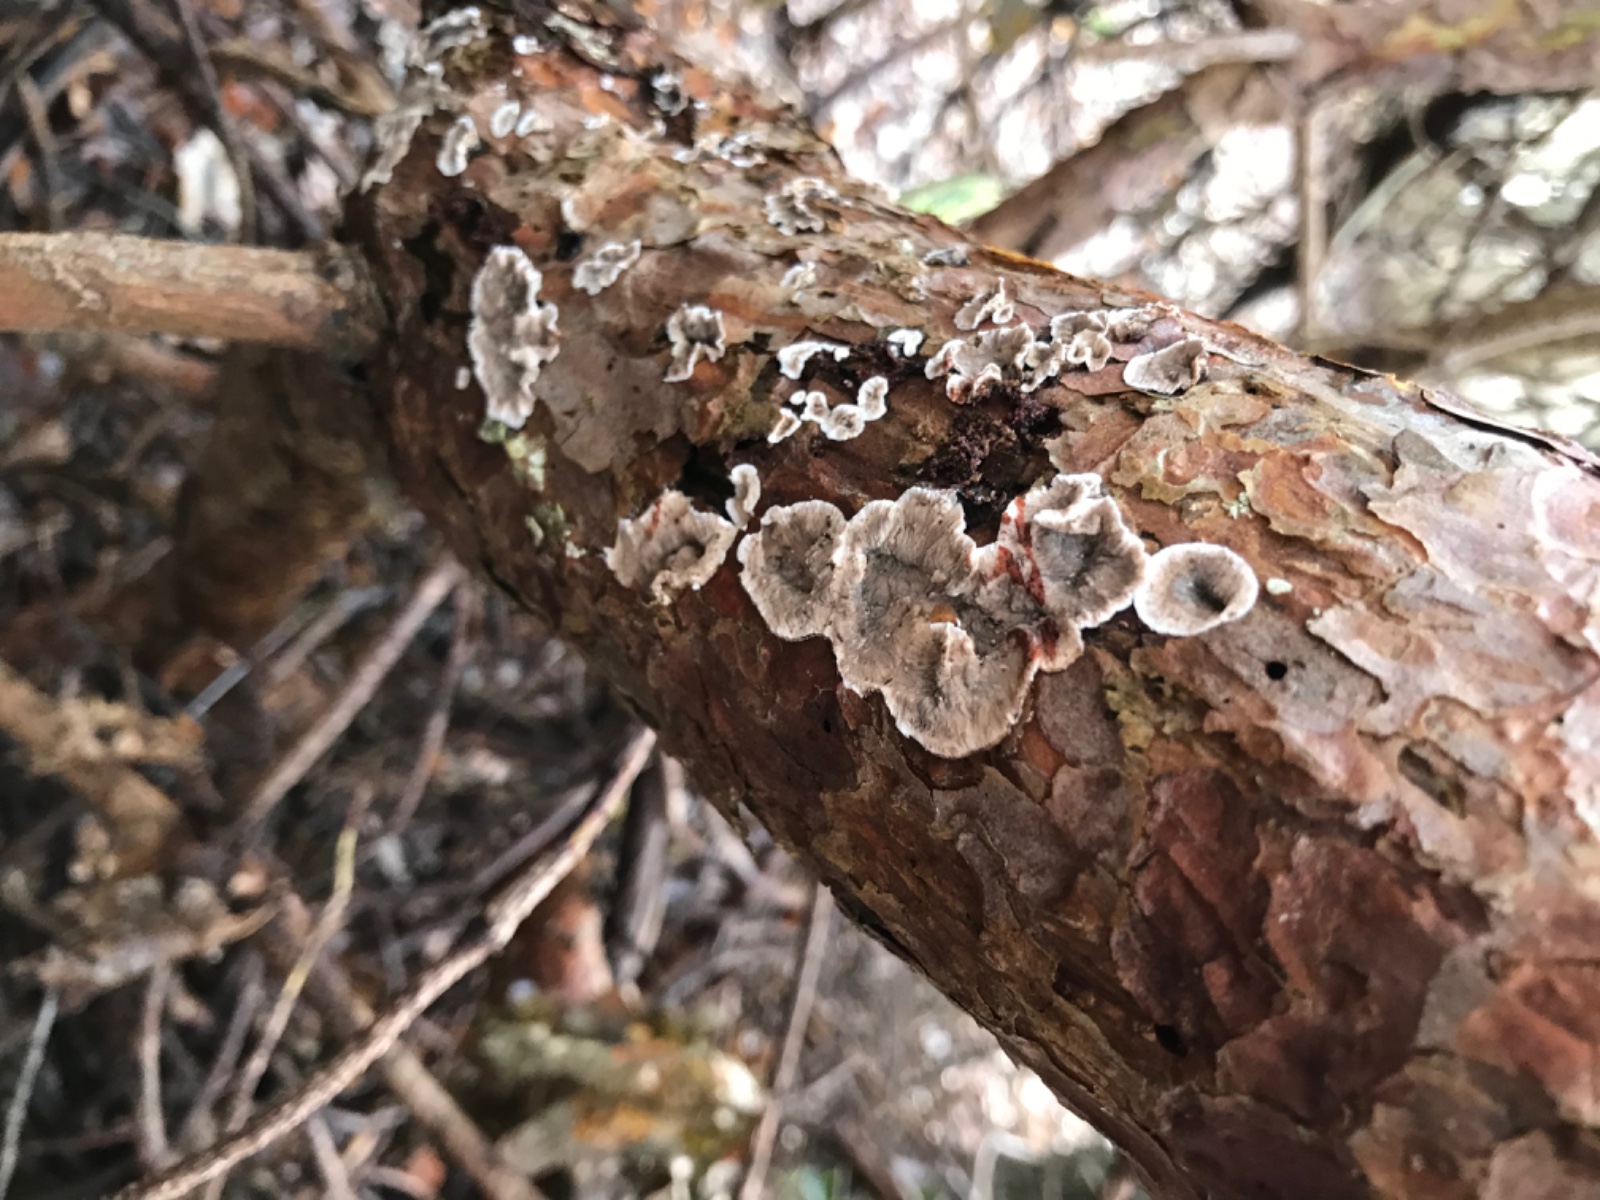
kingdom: Fungi
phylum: Basidiomycota
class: Agaricomycetes
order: Russulales
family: Stereaceae
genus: Stereum
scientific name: Stereum sanguinolentum
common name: blødende lædersvamp
